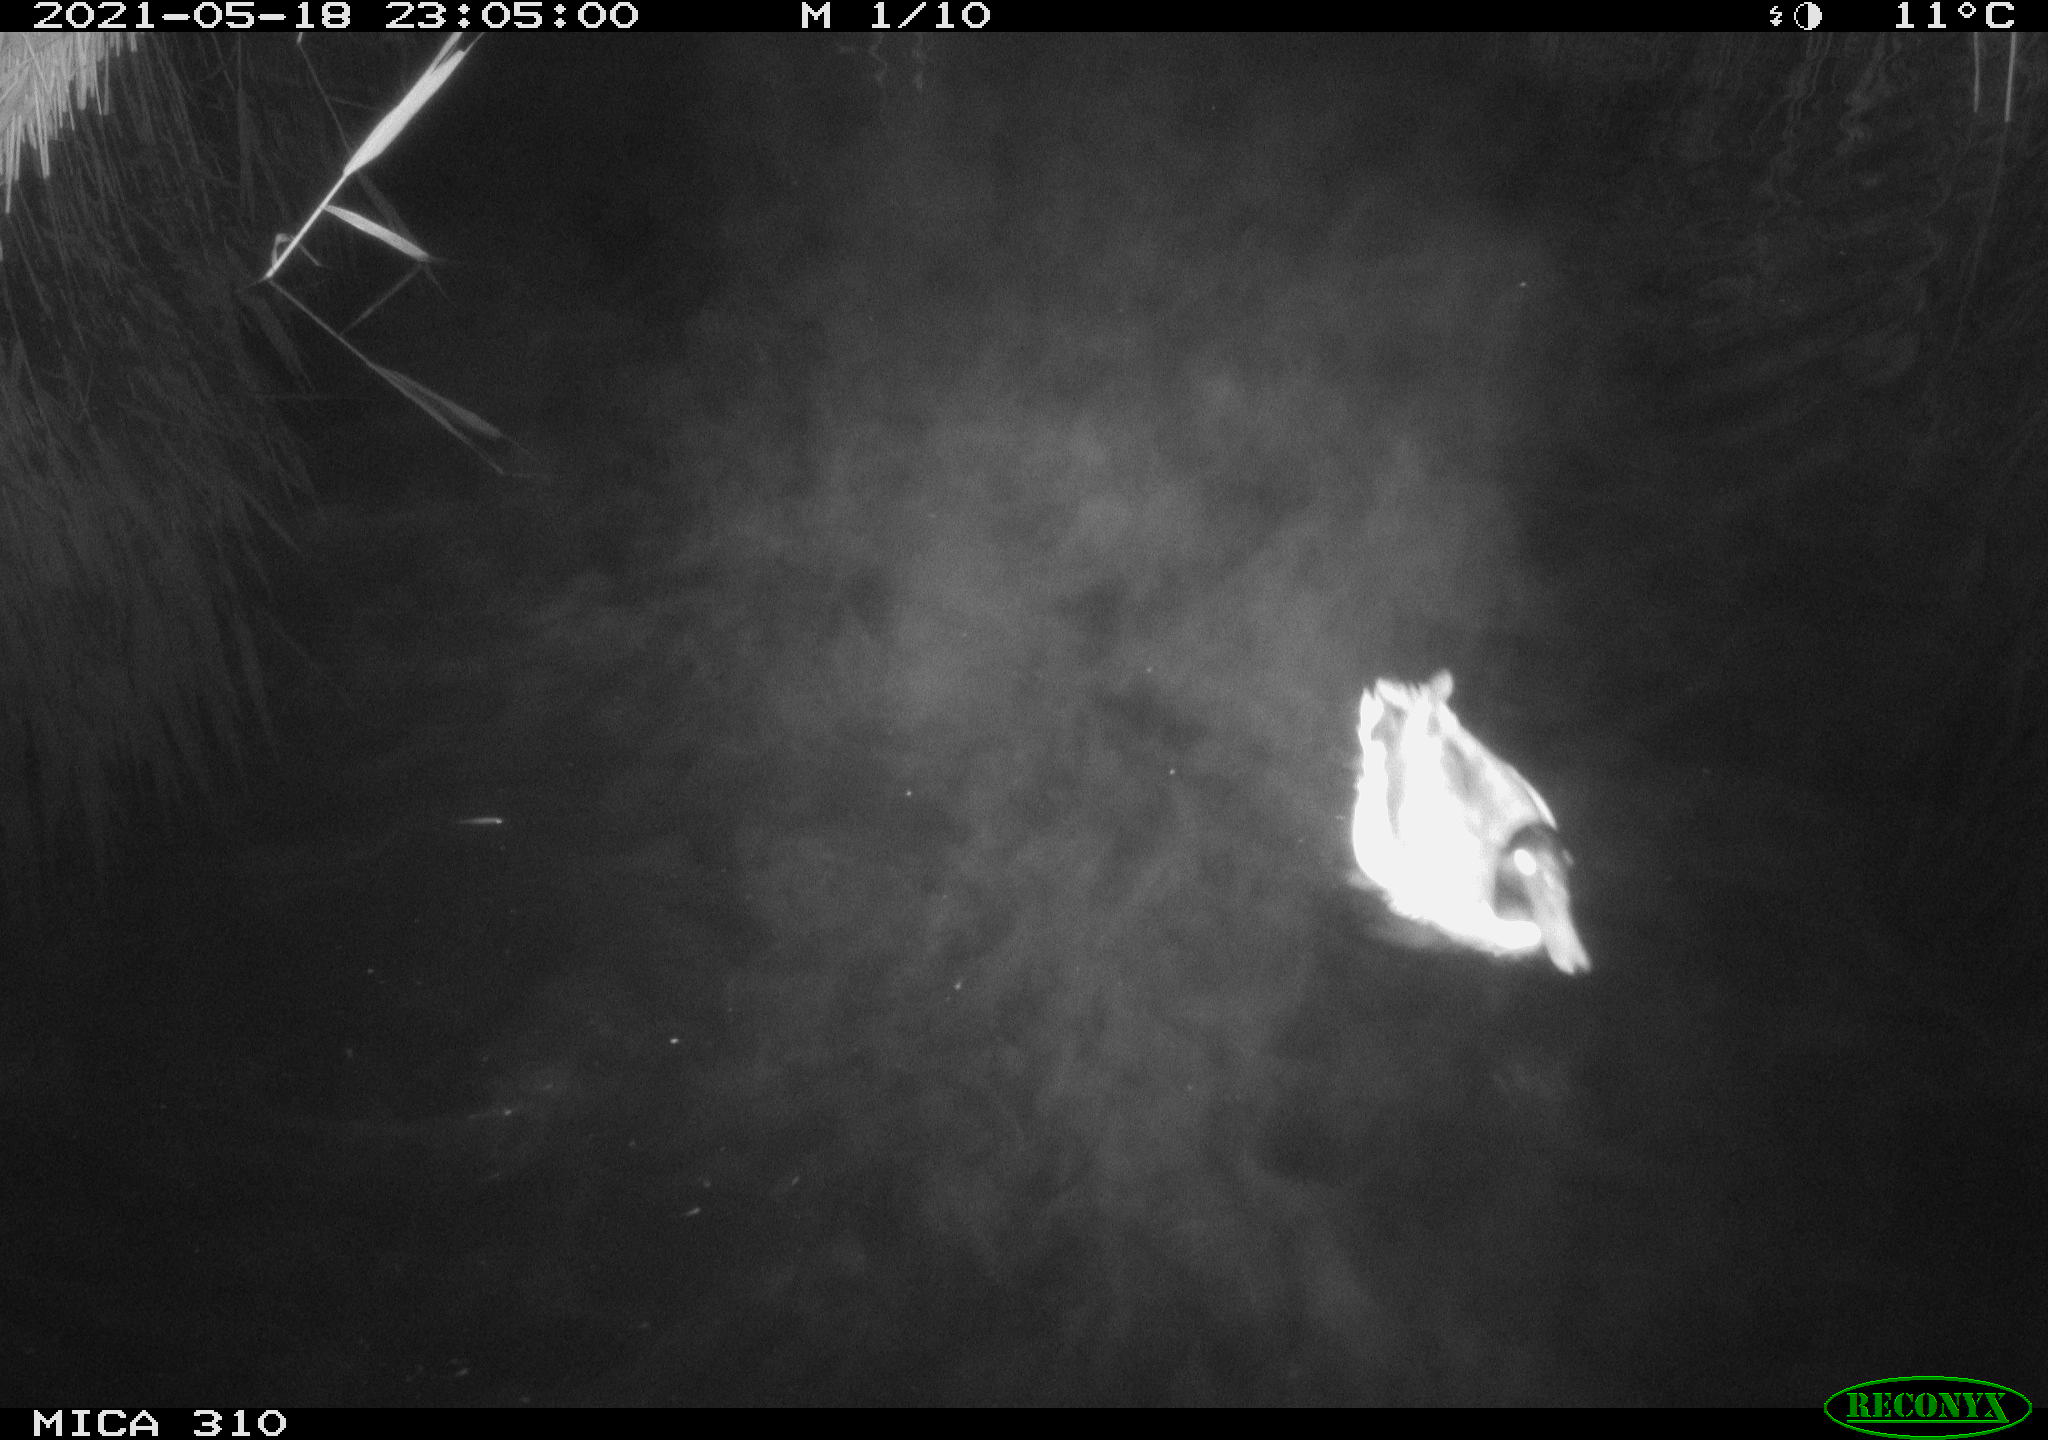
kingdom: Animalia
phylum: Chordata
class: Aves
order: Anseriformes
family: Anatidae
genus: Anas
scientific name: Anas platyrhynchos
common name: Mallard
